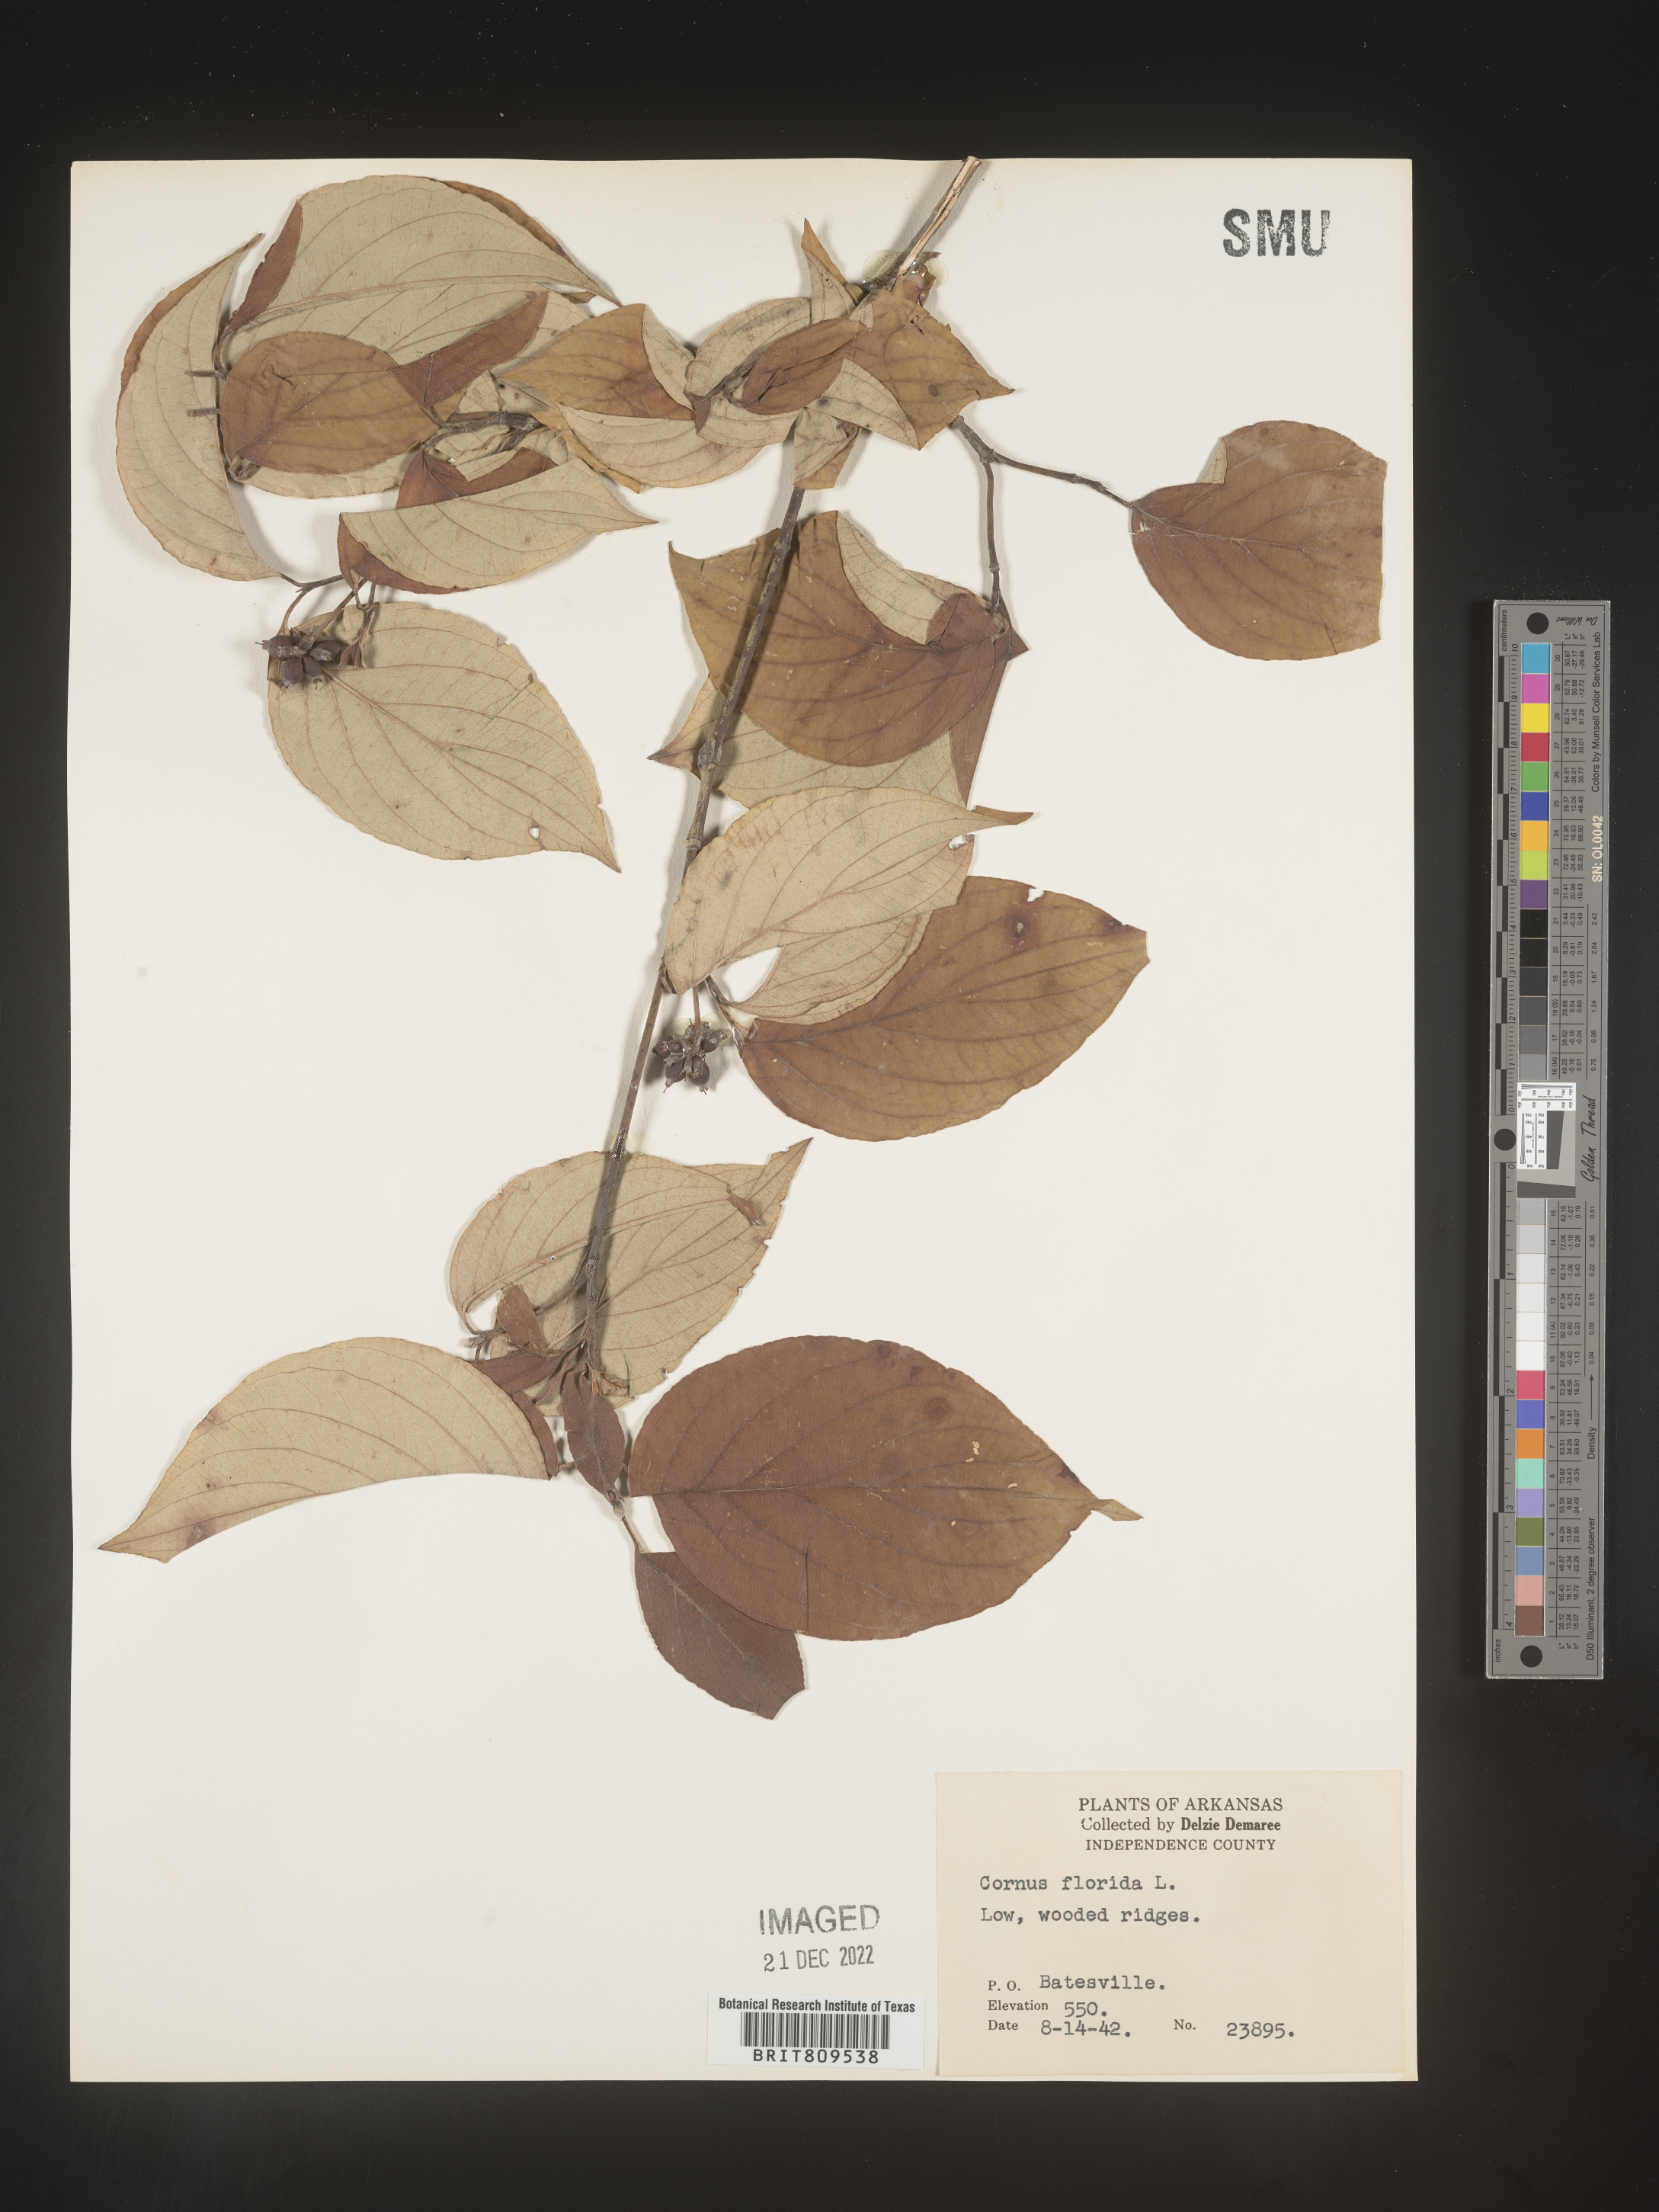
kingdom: Plantae
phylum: Tracheophyta
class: Magnoliopsida
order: Cornales
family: Cornaceae
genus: Cornus
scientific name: Cornus florida
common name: Flowering dogwood
